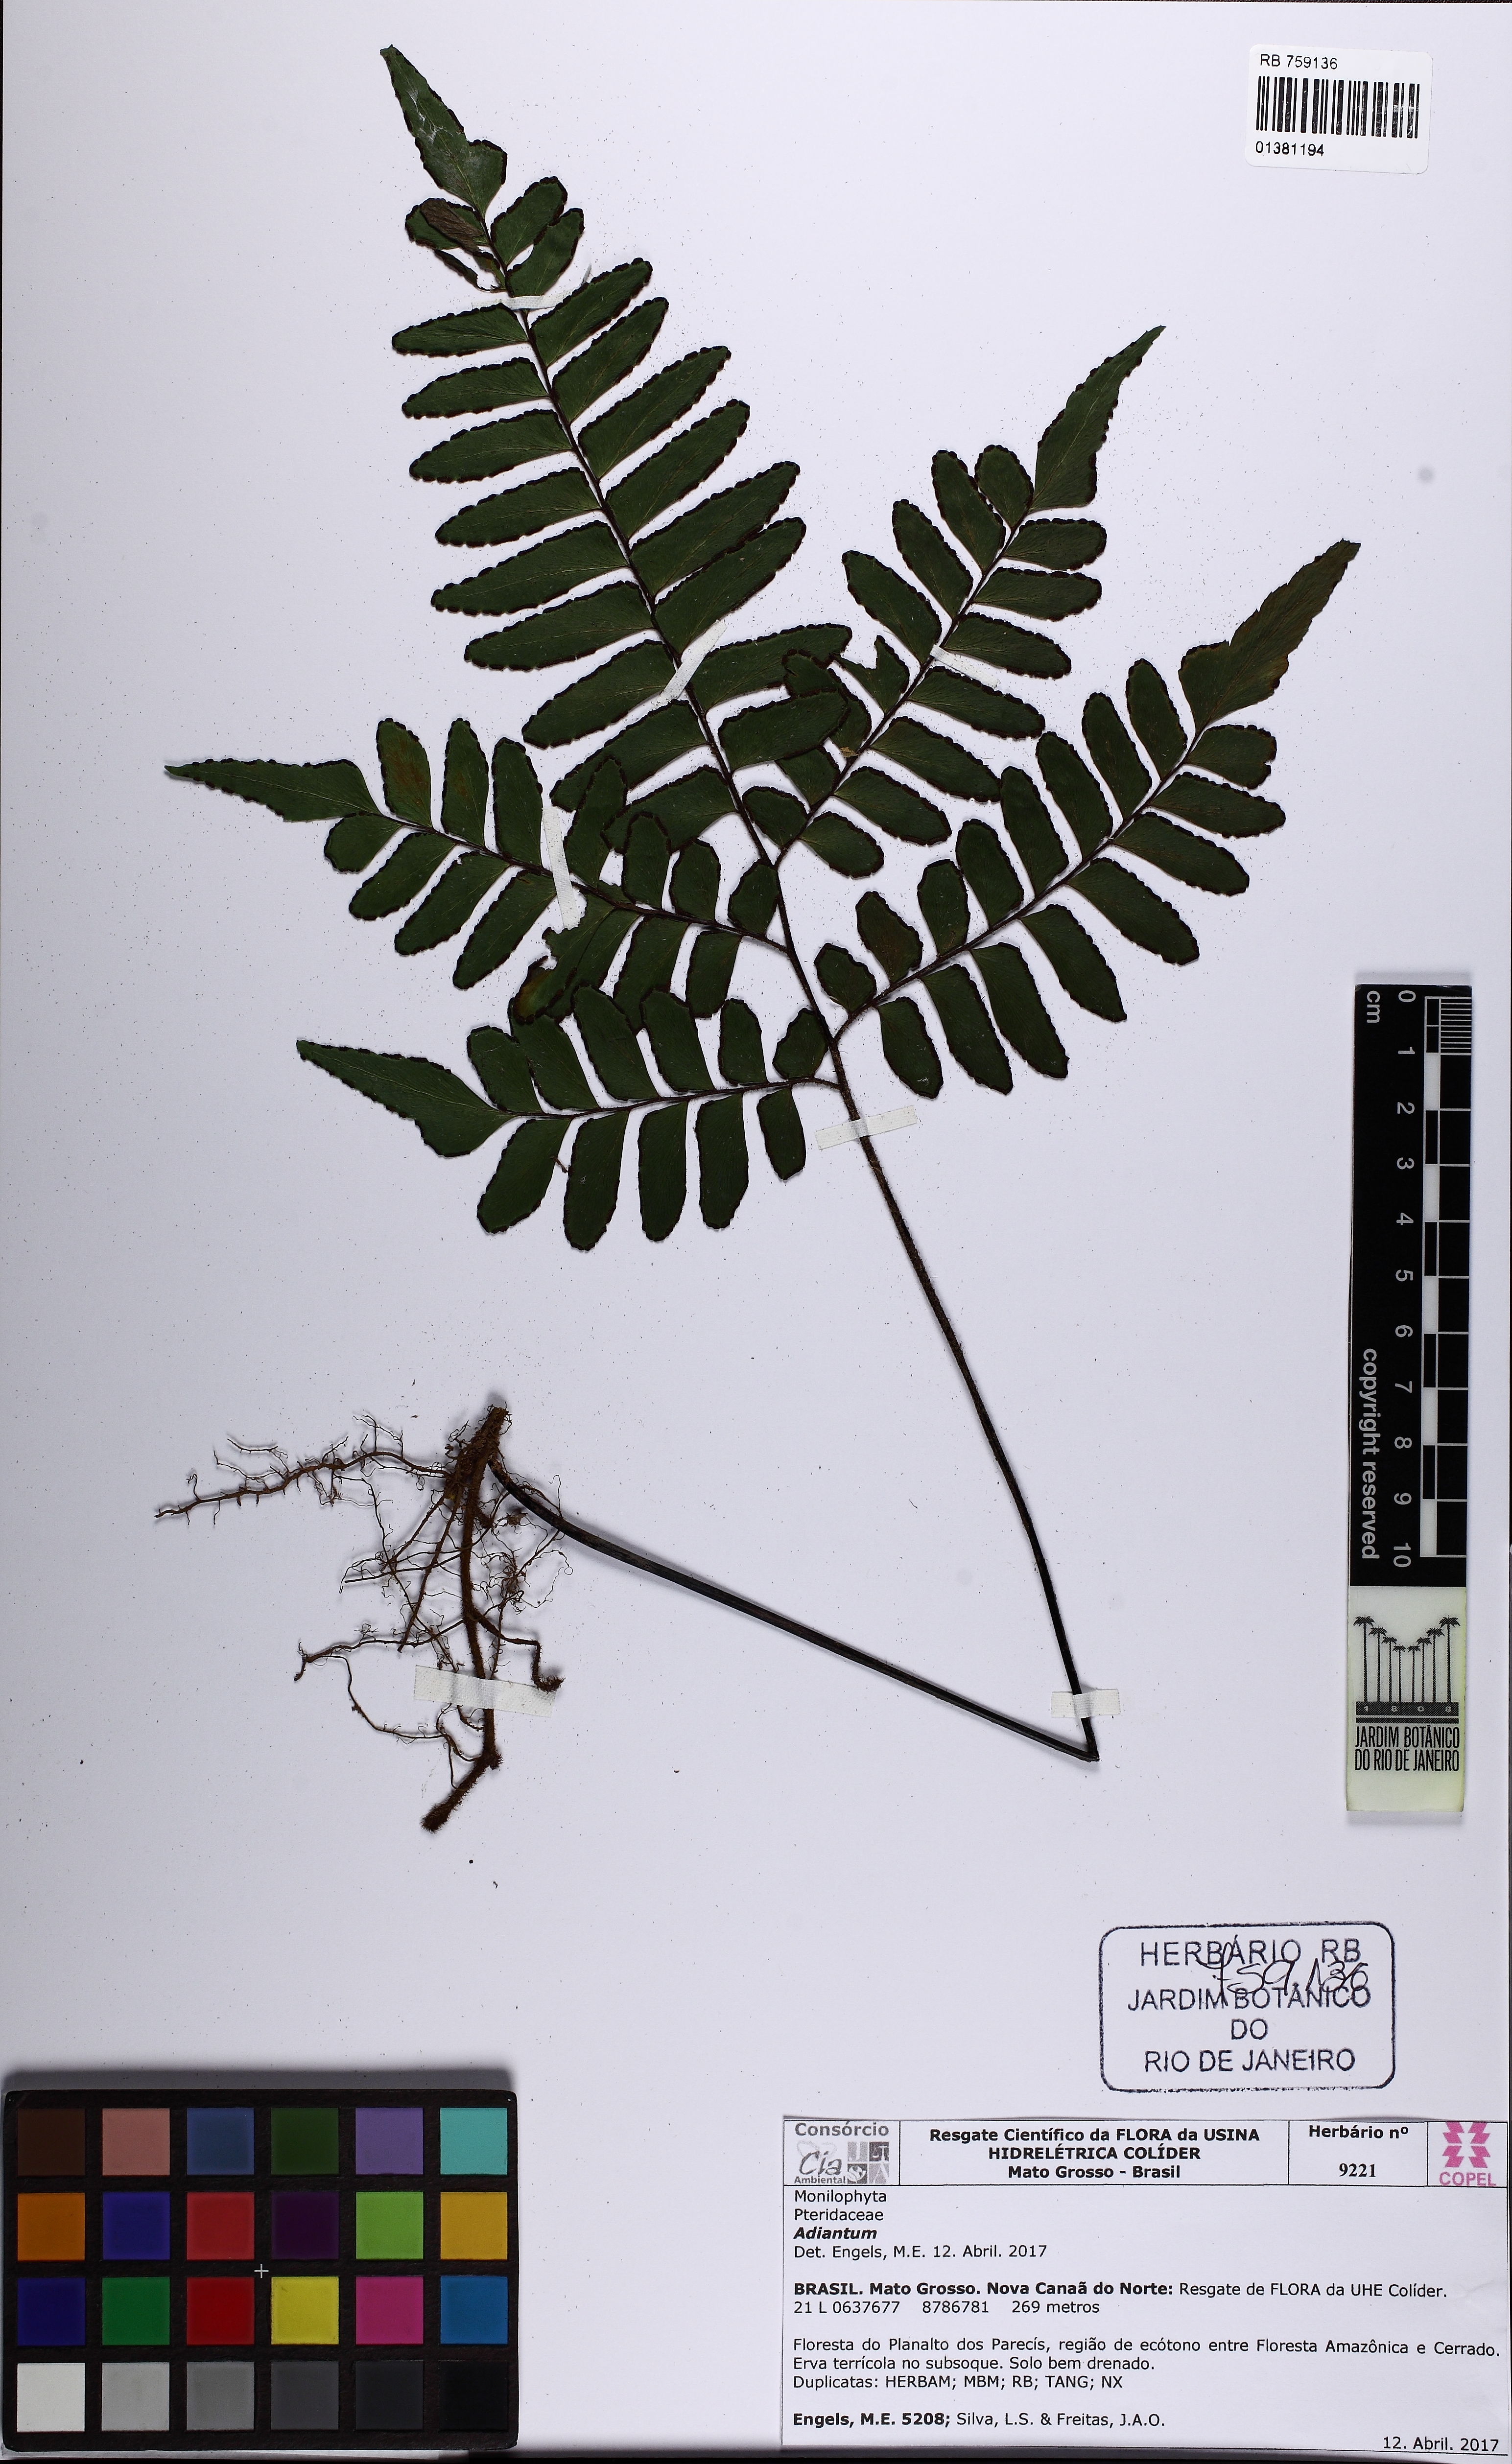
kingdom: Plantae
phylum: Tracheophyta
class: Polypodiopsida
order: Polypodiales
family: Pteridaceae
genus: Adiantum
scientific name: Adiantum
